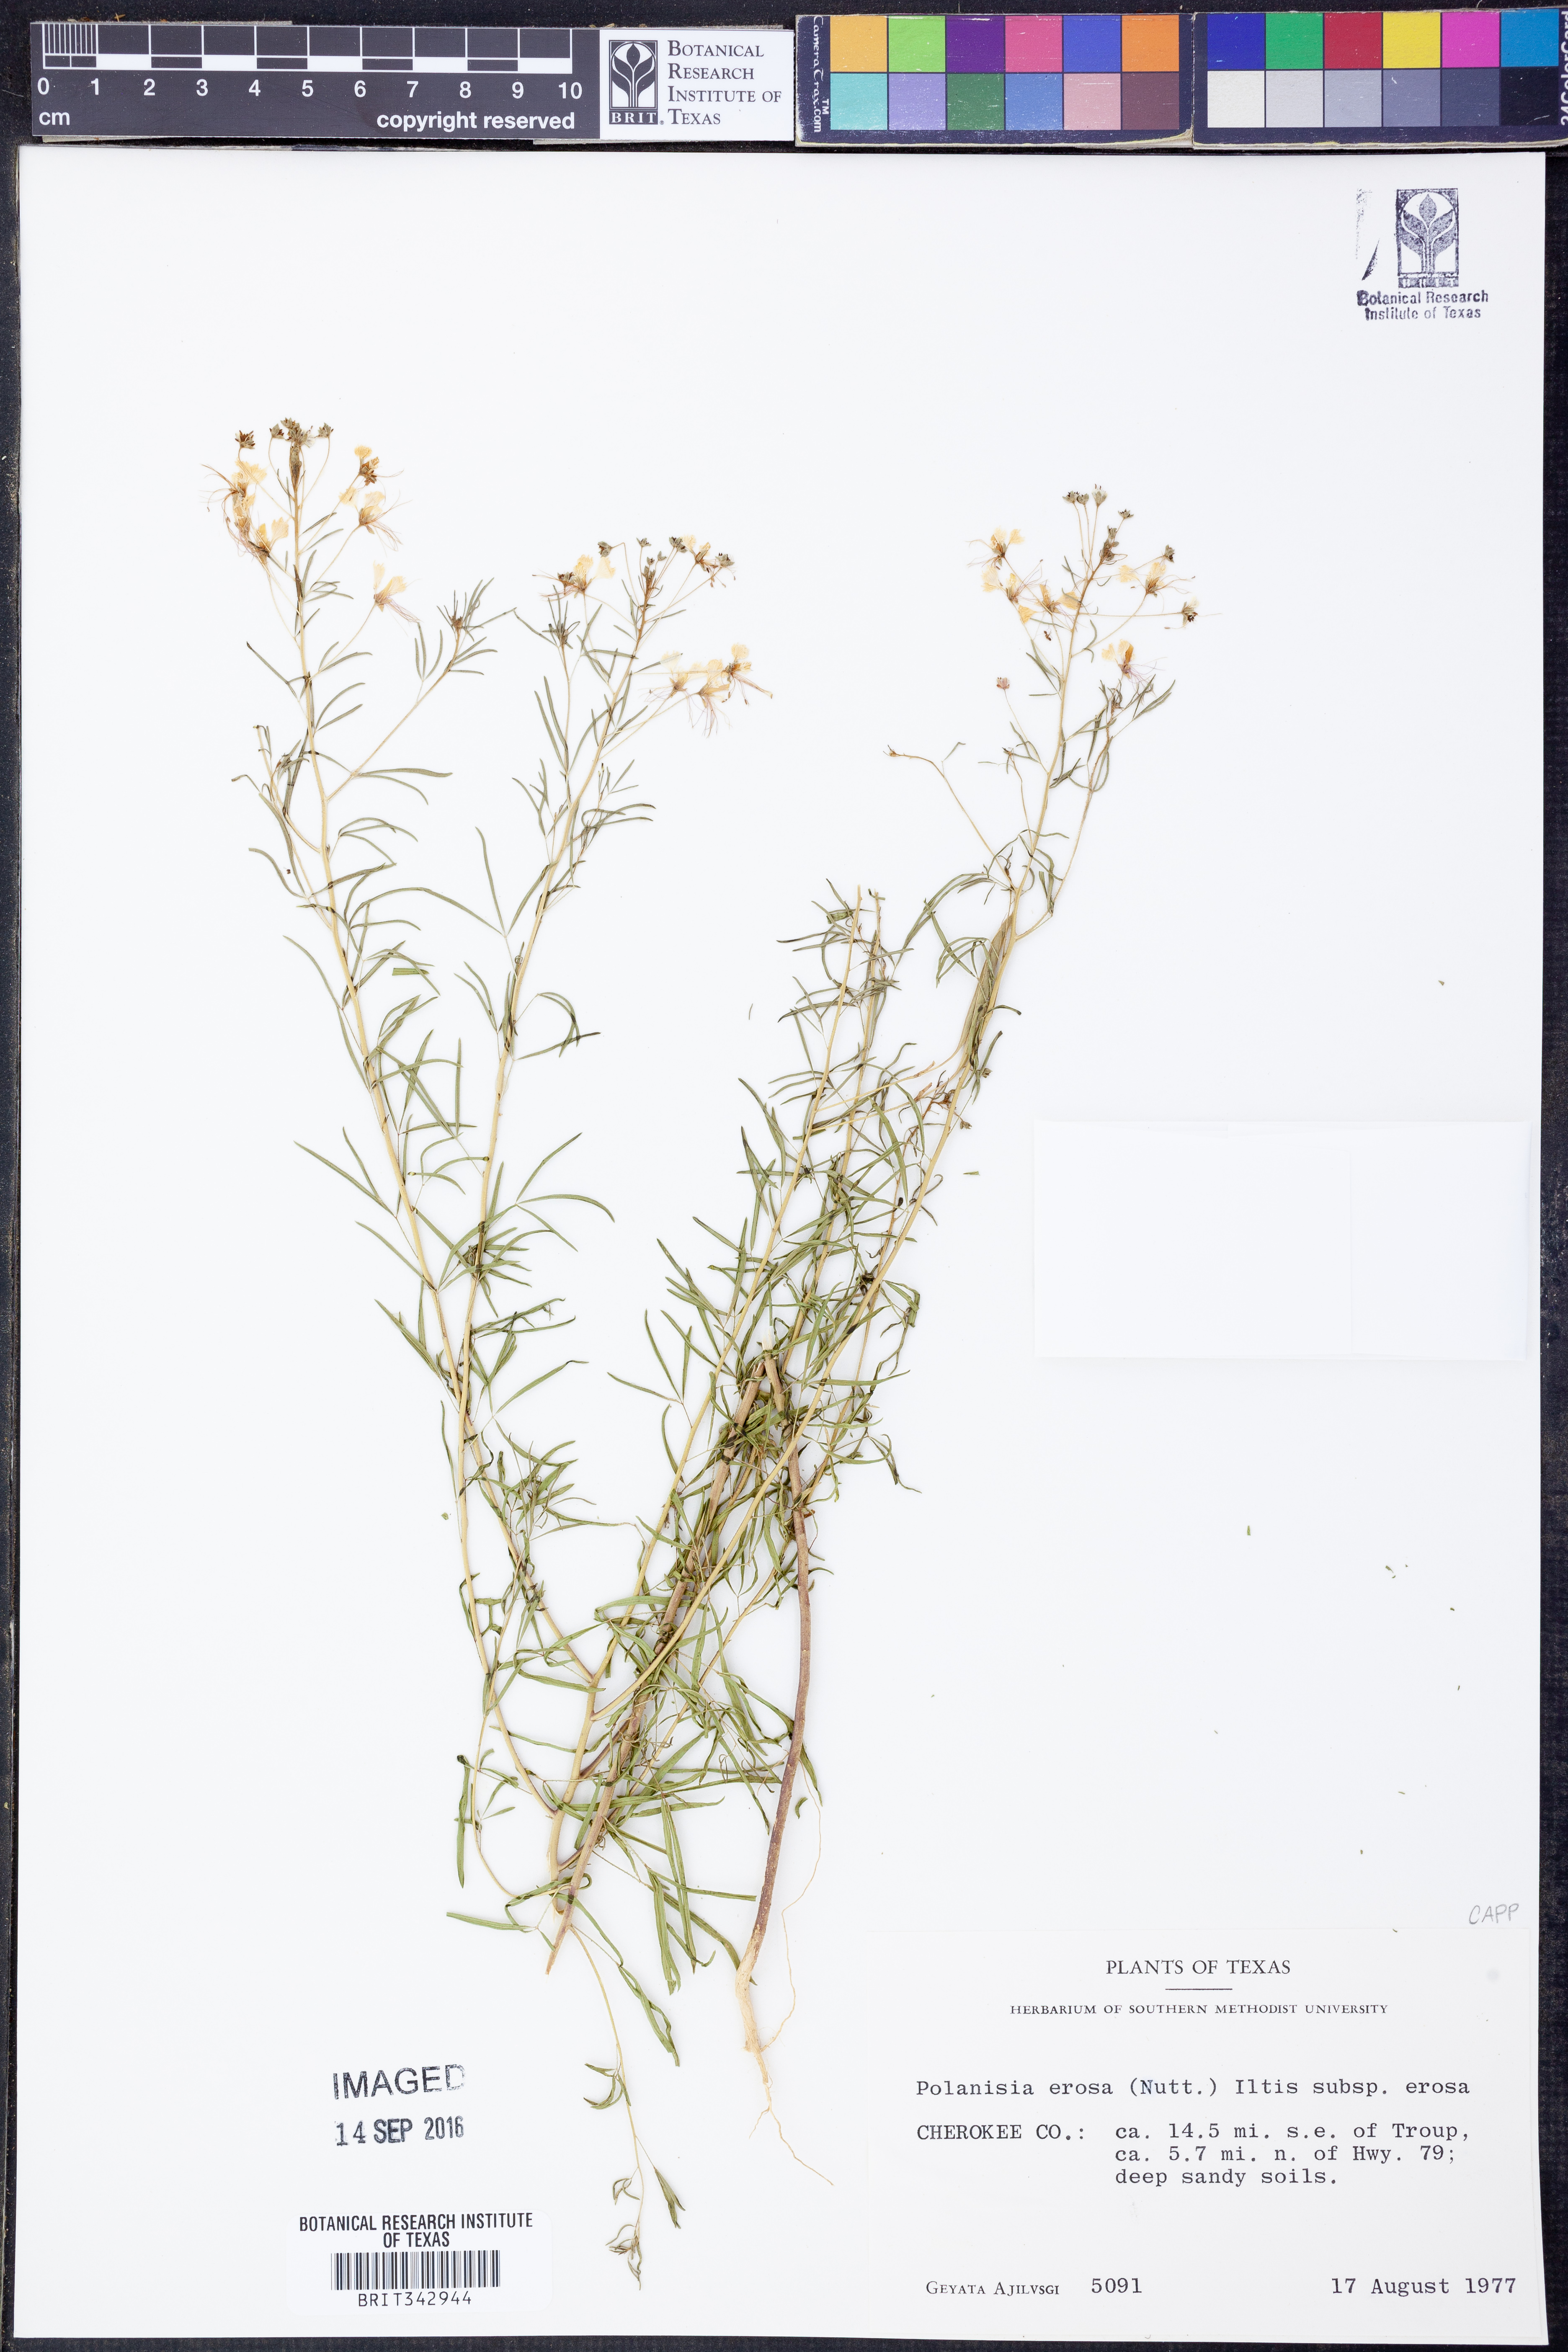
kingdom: Plantae
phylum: Tracheophyta
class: Magnoliopsida
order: Brassicales
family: Cleomaceae
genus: Polanisia
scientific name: Polanisia erosa
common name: Large clammyweed
